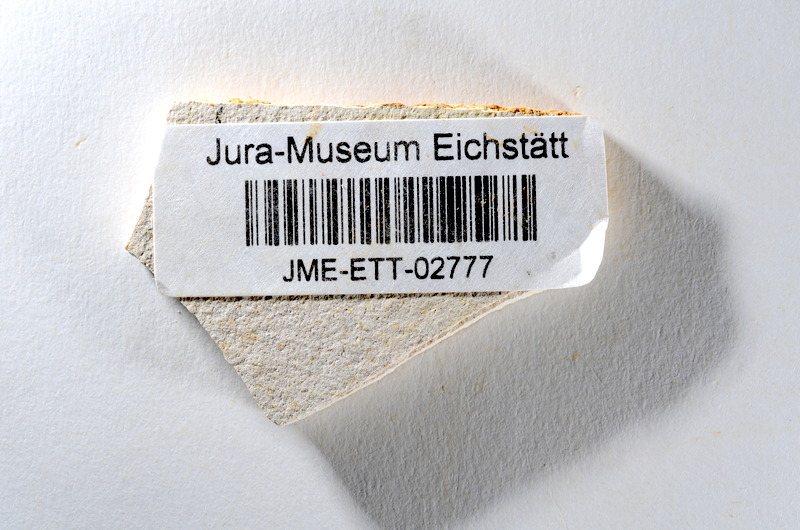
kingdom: Animalia
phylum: Chordata
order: Salmoniformes
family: Orthogonikleithridae
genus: Orthogonikleithrus
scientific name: Orthogonikleithrus hoelli
